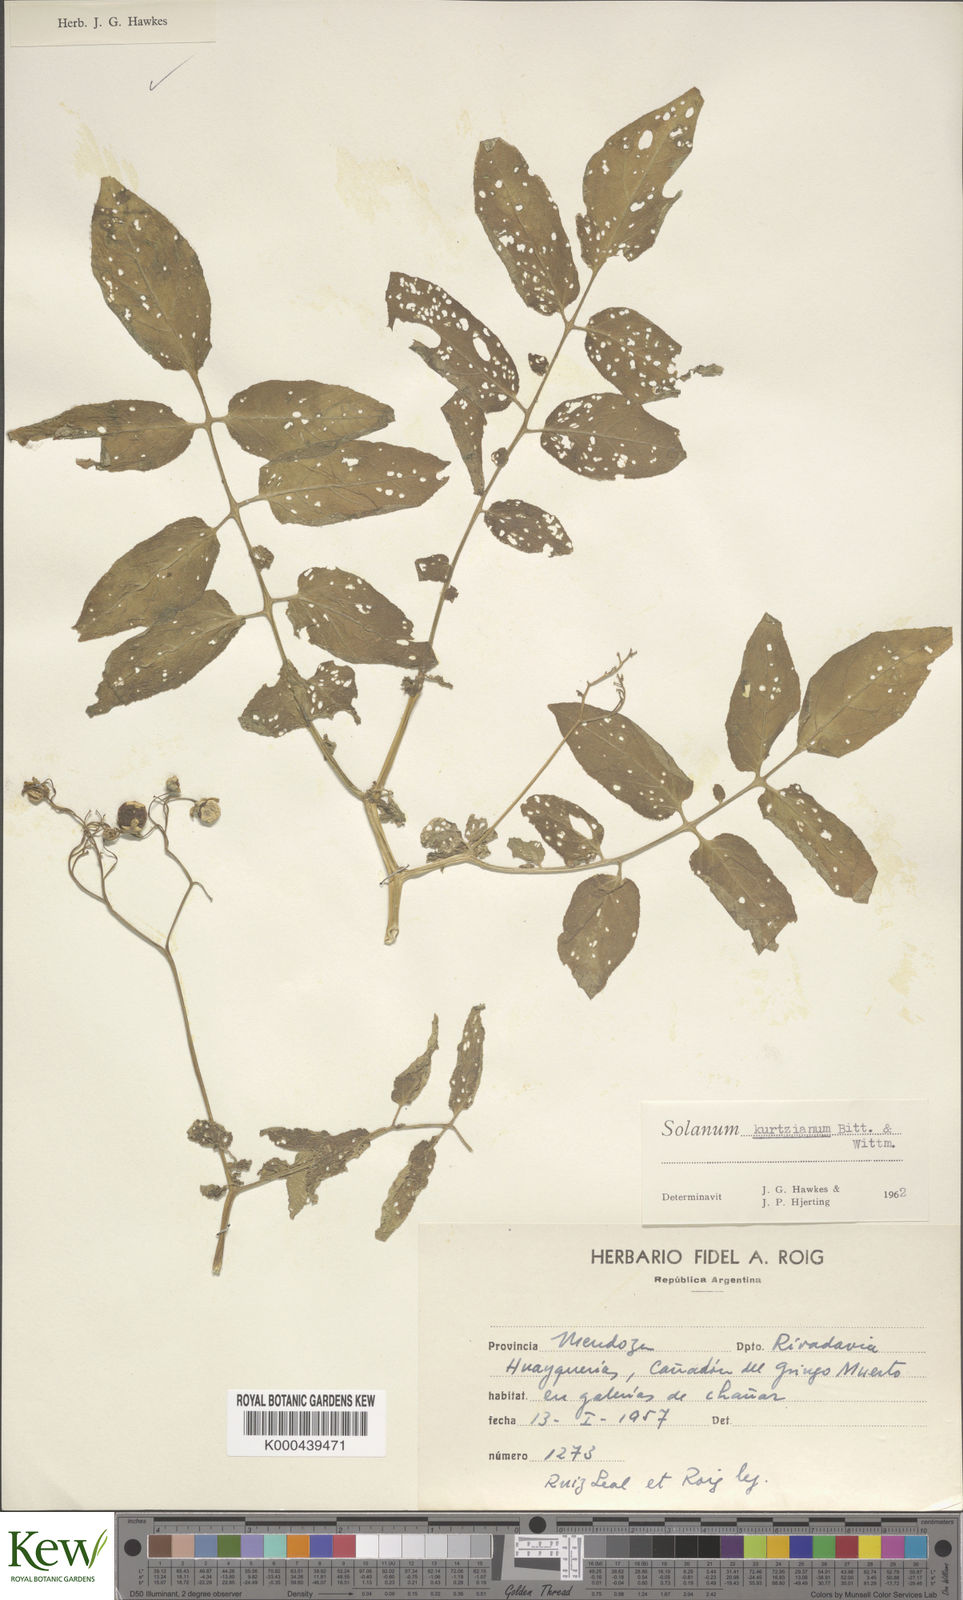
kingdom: Plantae
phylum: Tracheophyta
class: Magnoliopsida
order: Solanales
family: Solanaceae
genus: Solanum
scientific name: Solanum kurtzianum
